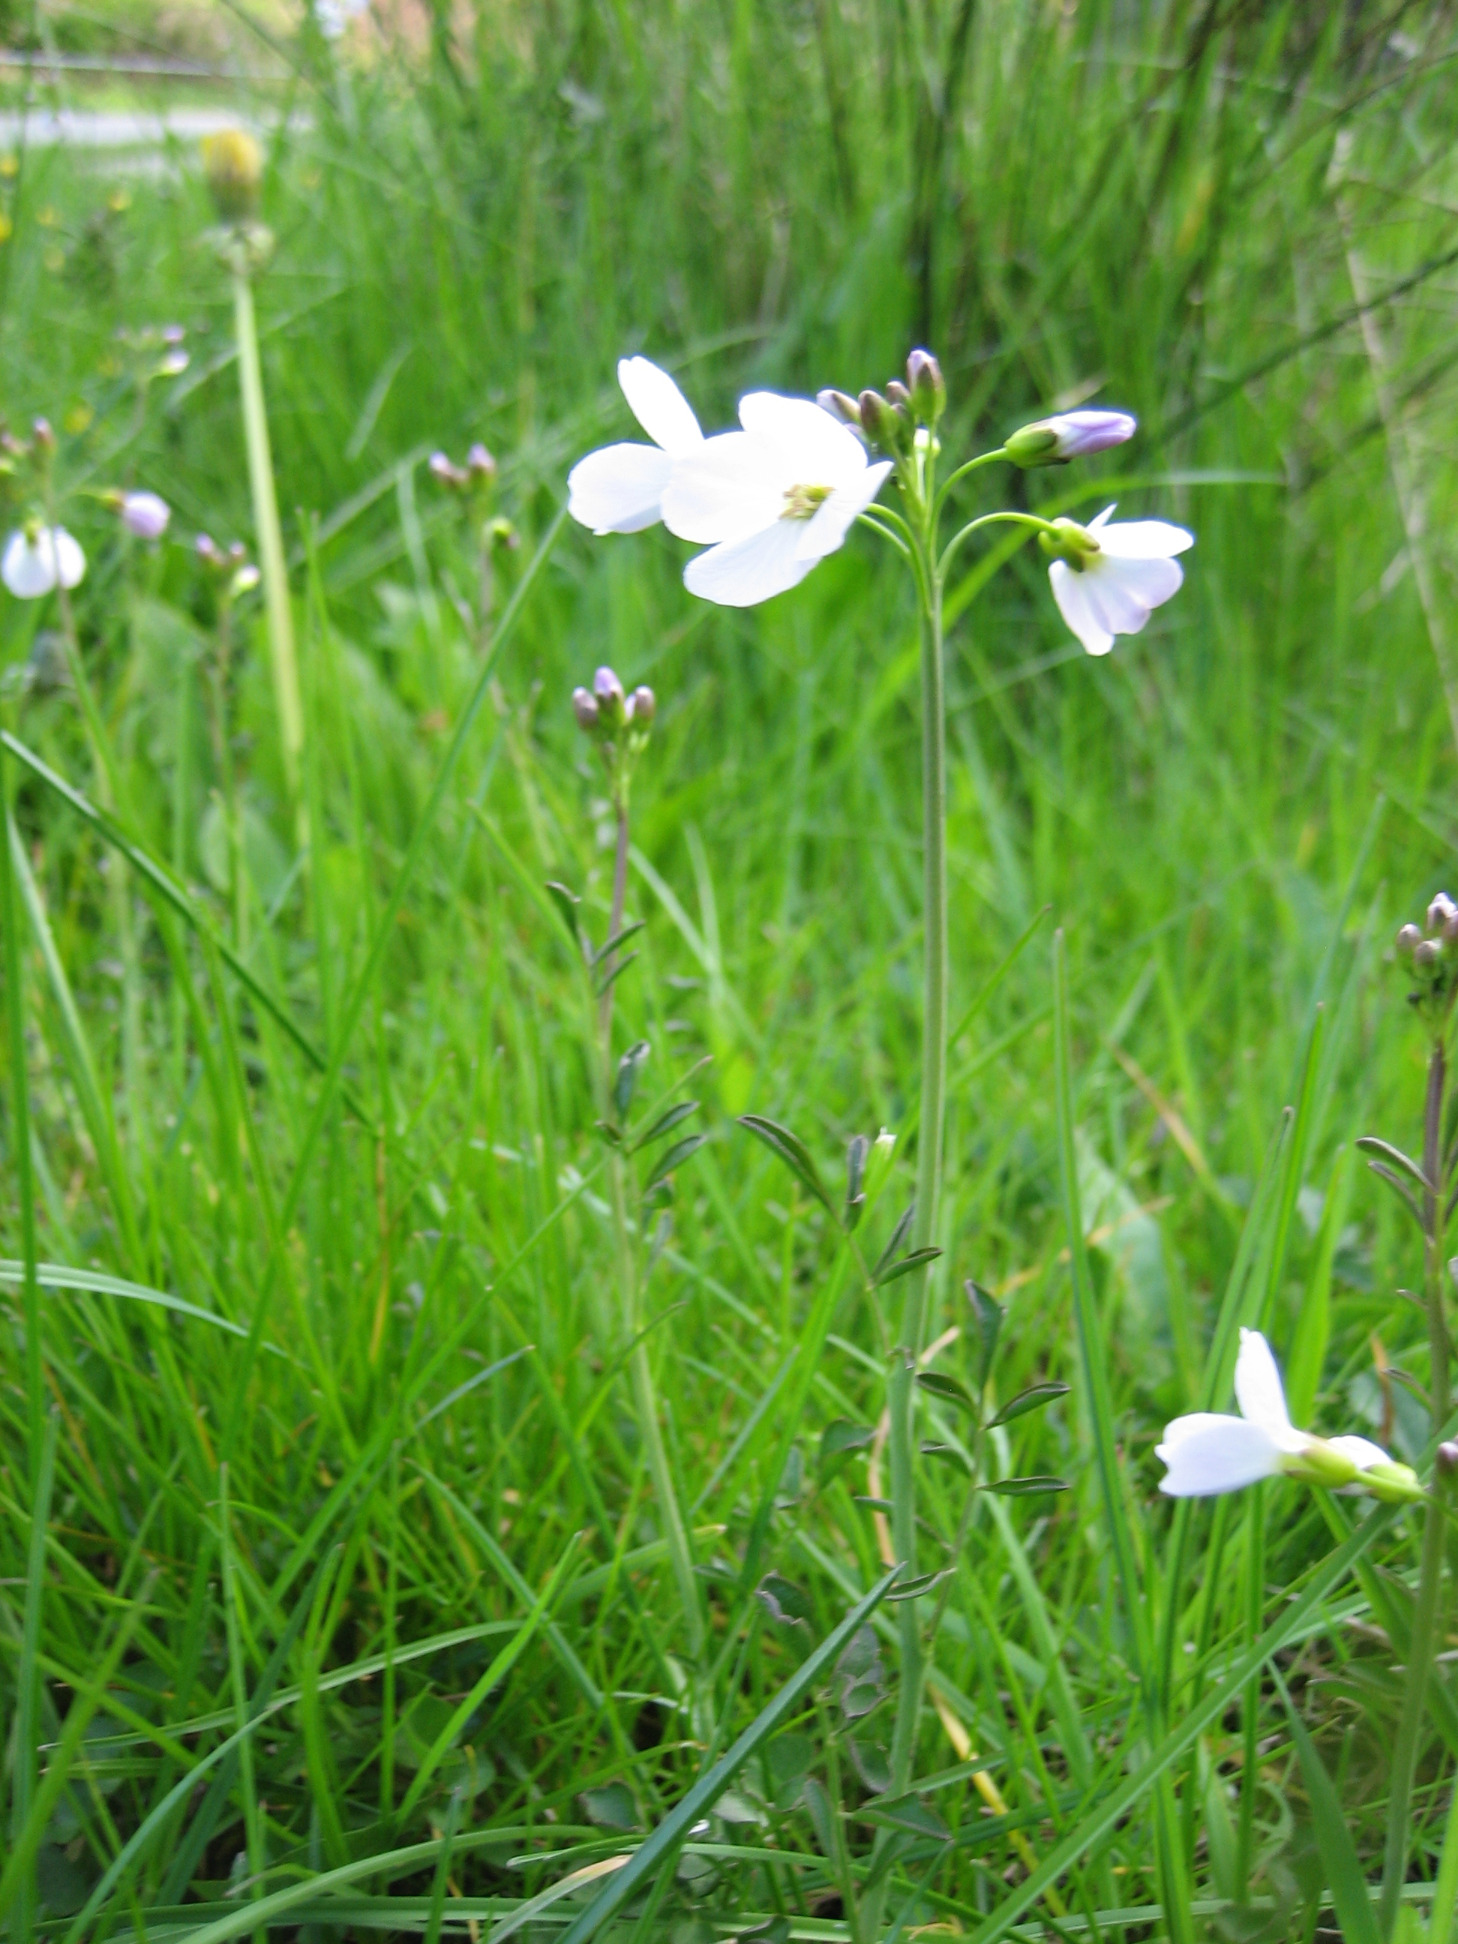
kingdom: Plantae
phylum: Tracheophyta
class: Magnoliopsida
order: Brassicales
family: Brassicaceae
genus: Cardamine
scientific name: Cardamine pratensis
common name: Engkarse
